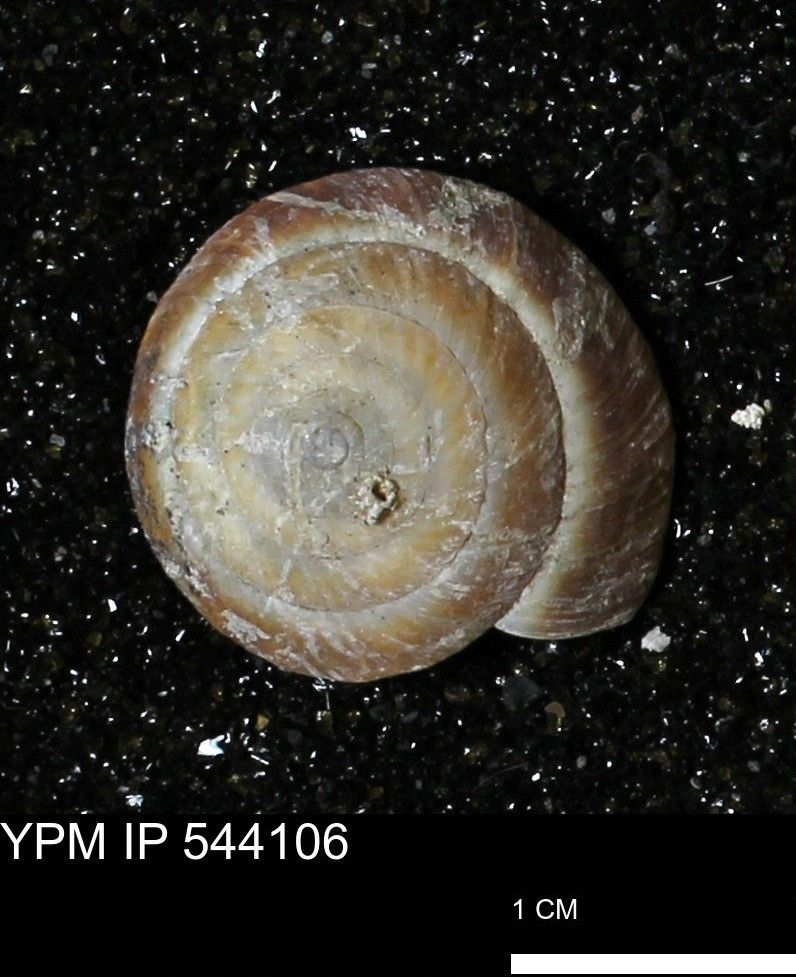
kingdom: Animalia
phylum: Mollusca
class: Gastropoda
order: Stylommatophora
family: Gastrodontidae
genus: Poecilozonites
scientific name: Poecilozonites bermudensis
